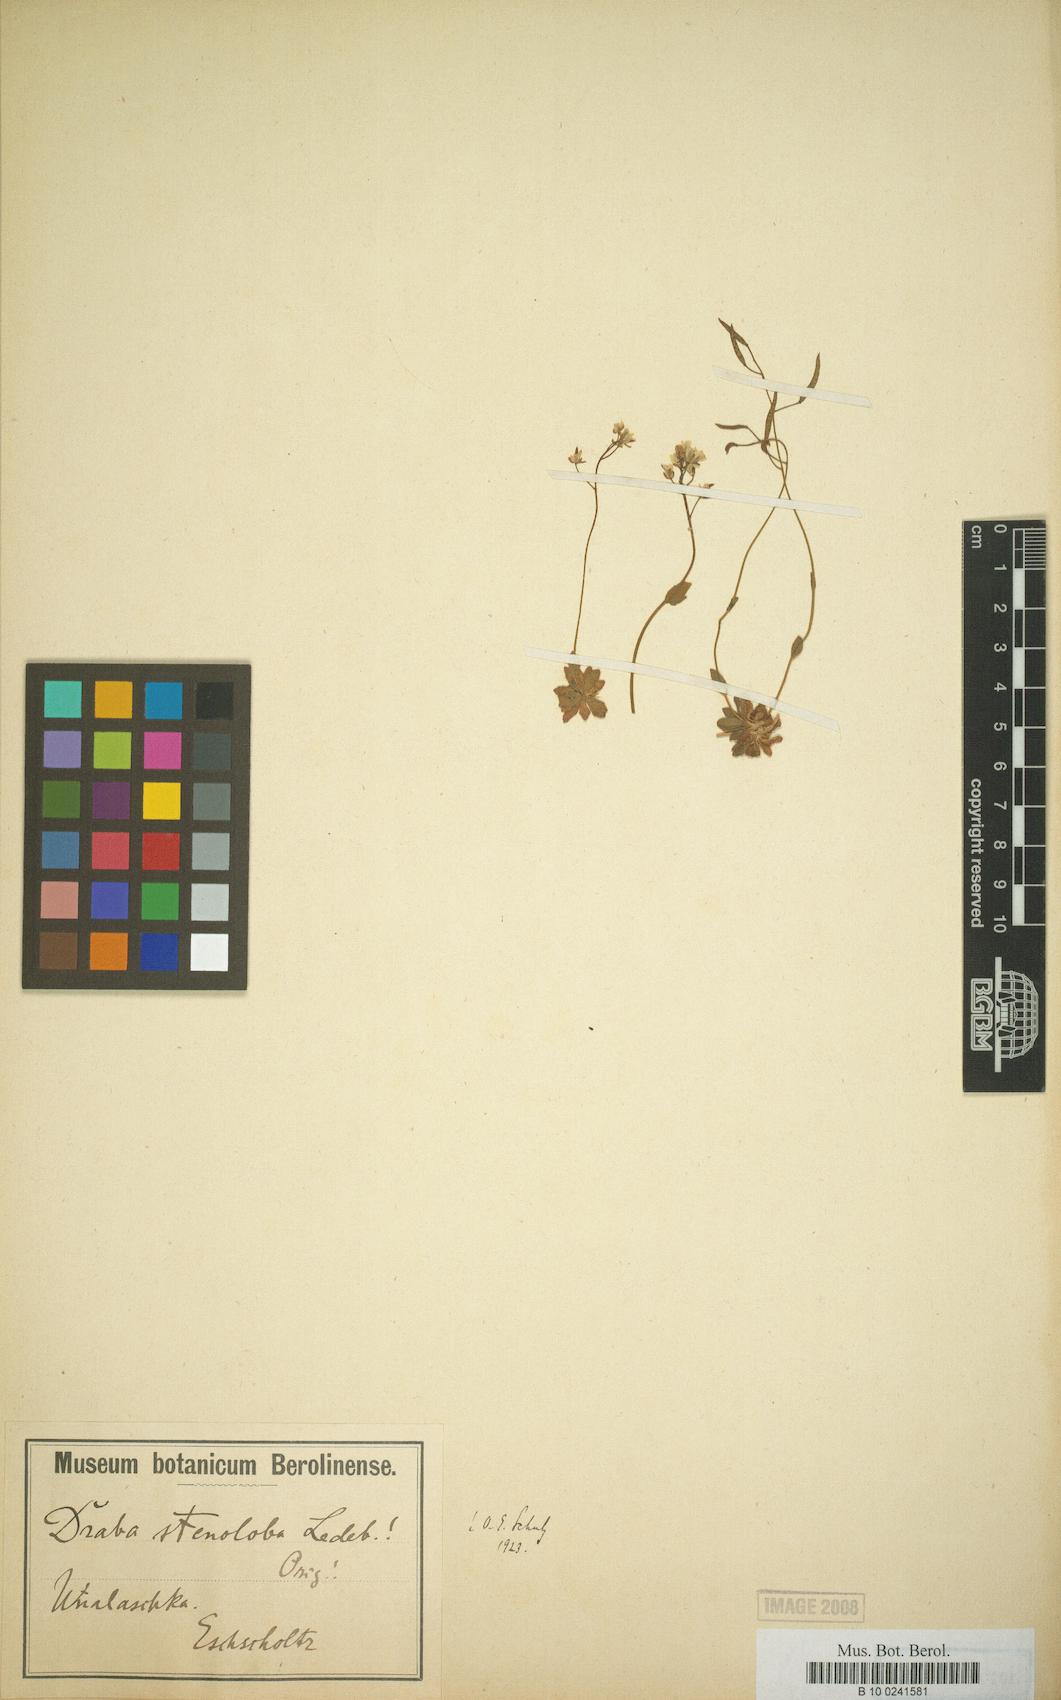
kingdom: Plantae
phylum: Tracheophyta
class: Magnoliopsida
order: Brassicales
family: Brassicaceae
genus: Draba
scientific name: Draba stenoloba
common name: Alaska draba
